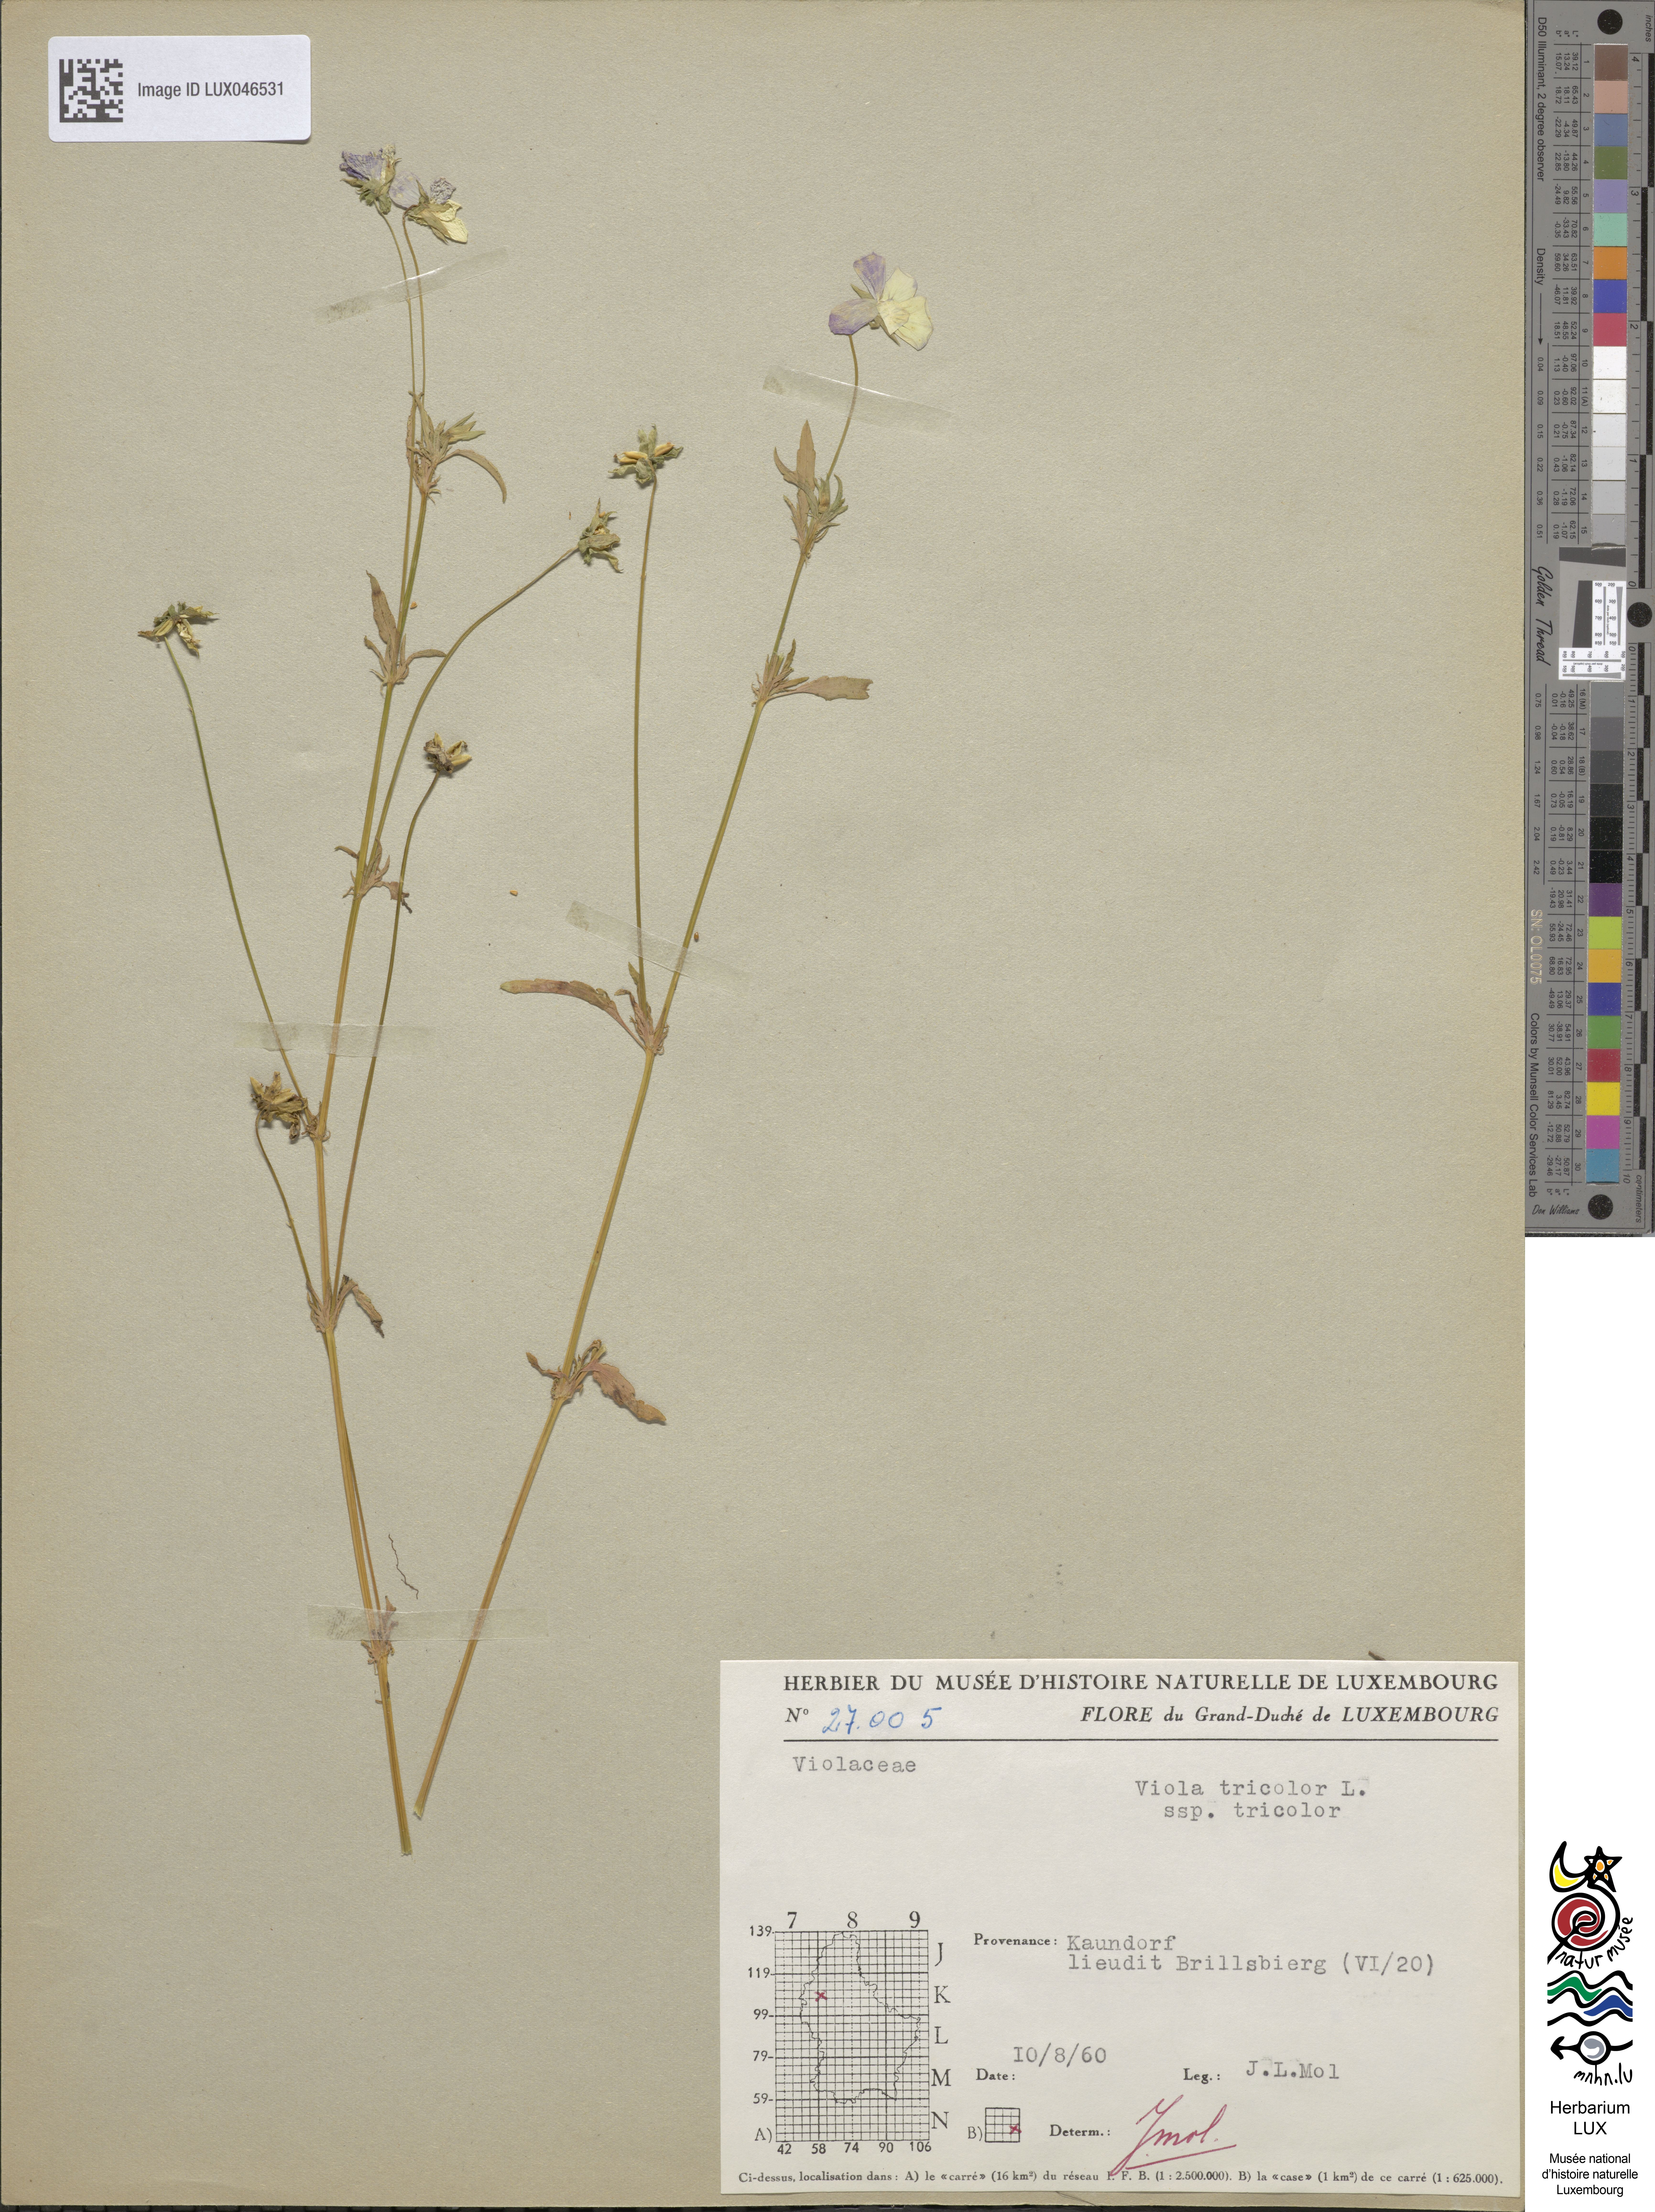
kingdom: Plantae
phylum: Tracheophyta
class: Magnoliopsida
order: Malpighiales
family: Violaceae
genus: Viola
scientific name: Viola tricolor
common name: Pansy
